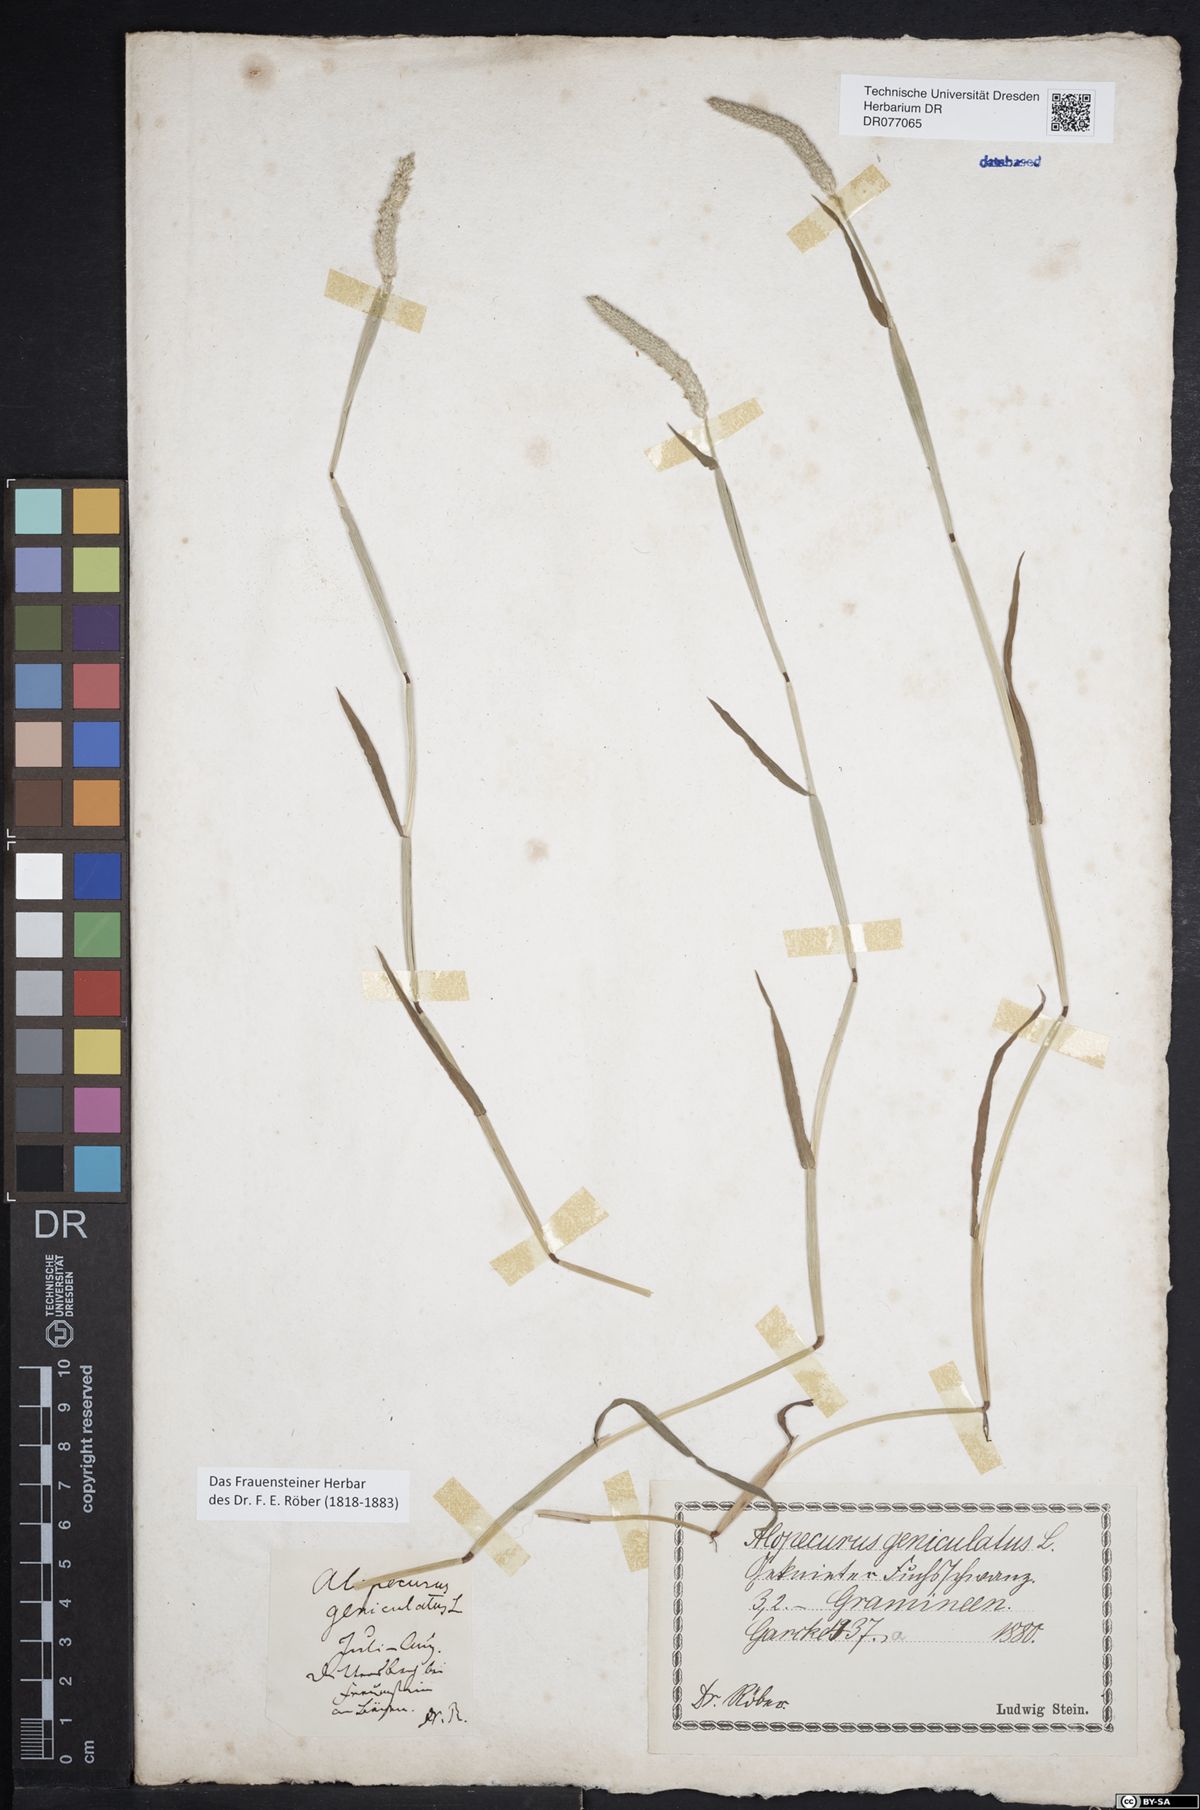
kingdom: Plantae
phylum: Tracheophyta
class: Liliopsida
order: Poales
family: Poaceae
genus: Alopecurus
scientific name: Alopecurus geniculatus
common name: Water foxtail
